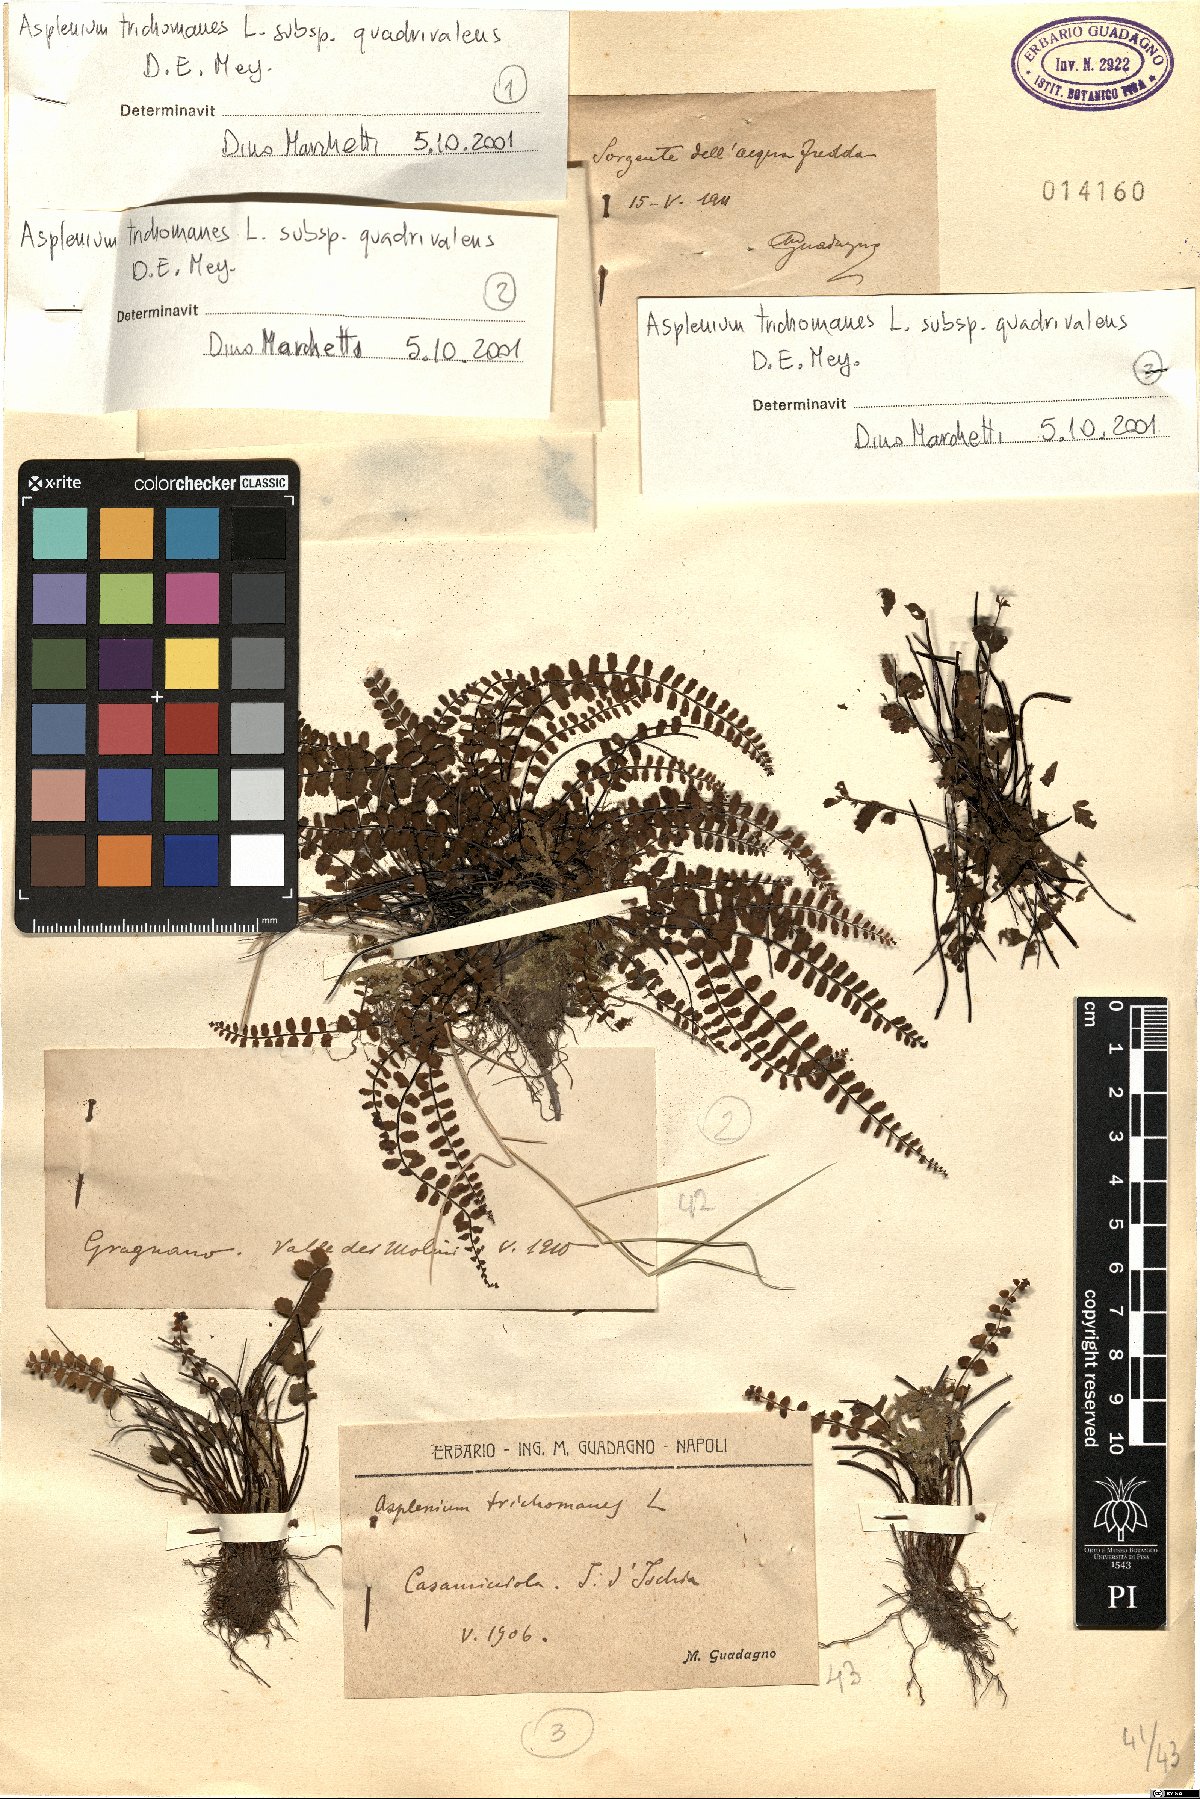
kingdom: Plantae
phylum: Tracheophyta
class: Polypodiopsida
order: Polypodiales
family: Aspleniaceae
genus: Asplenium
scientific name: Asplenium quadrivalens
